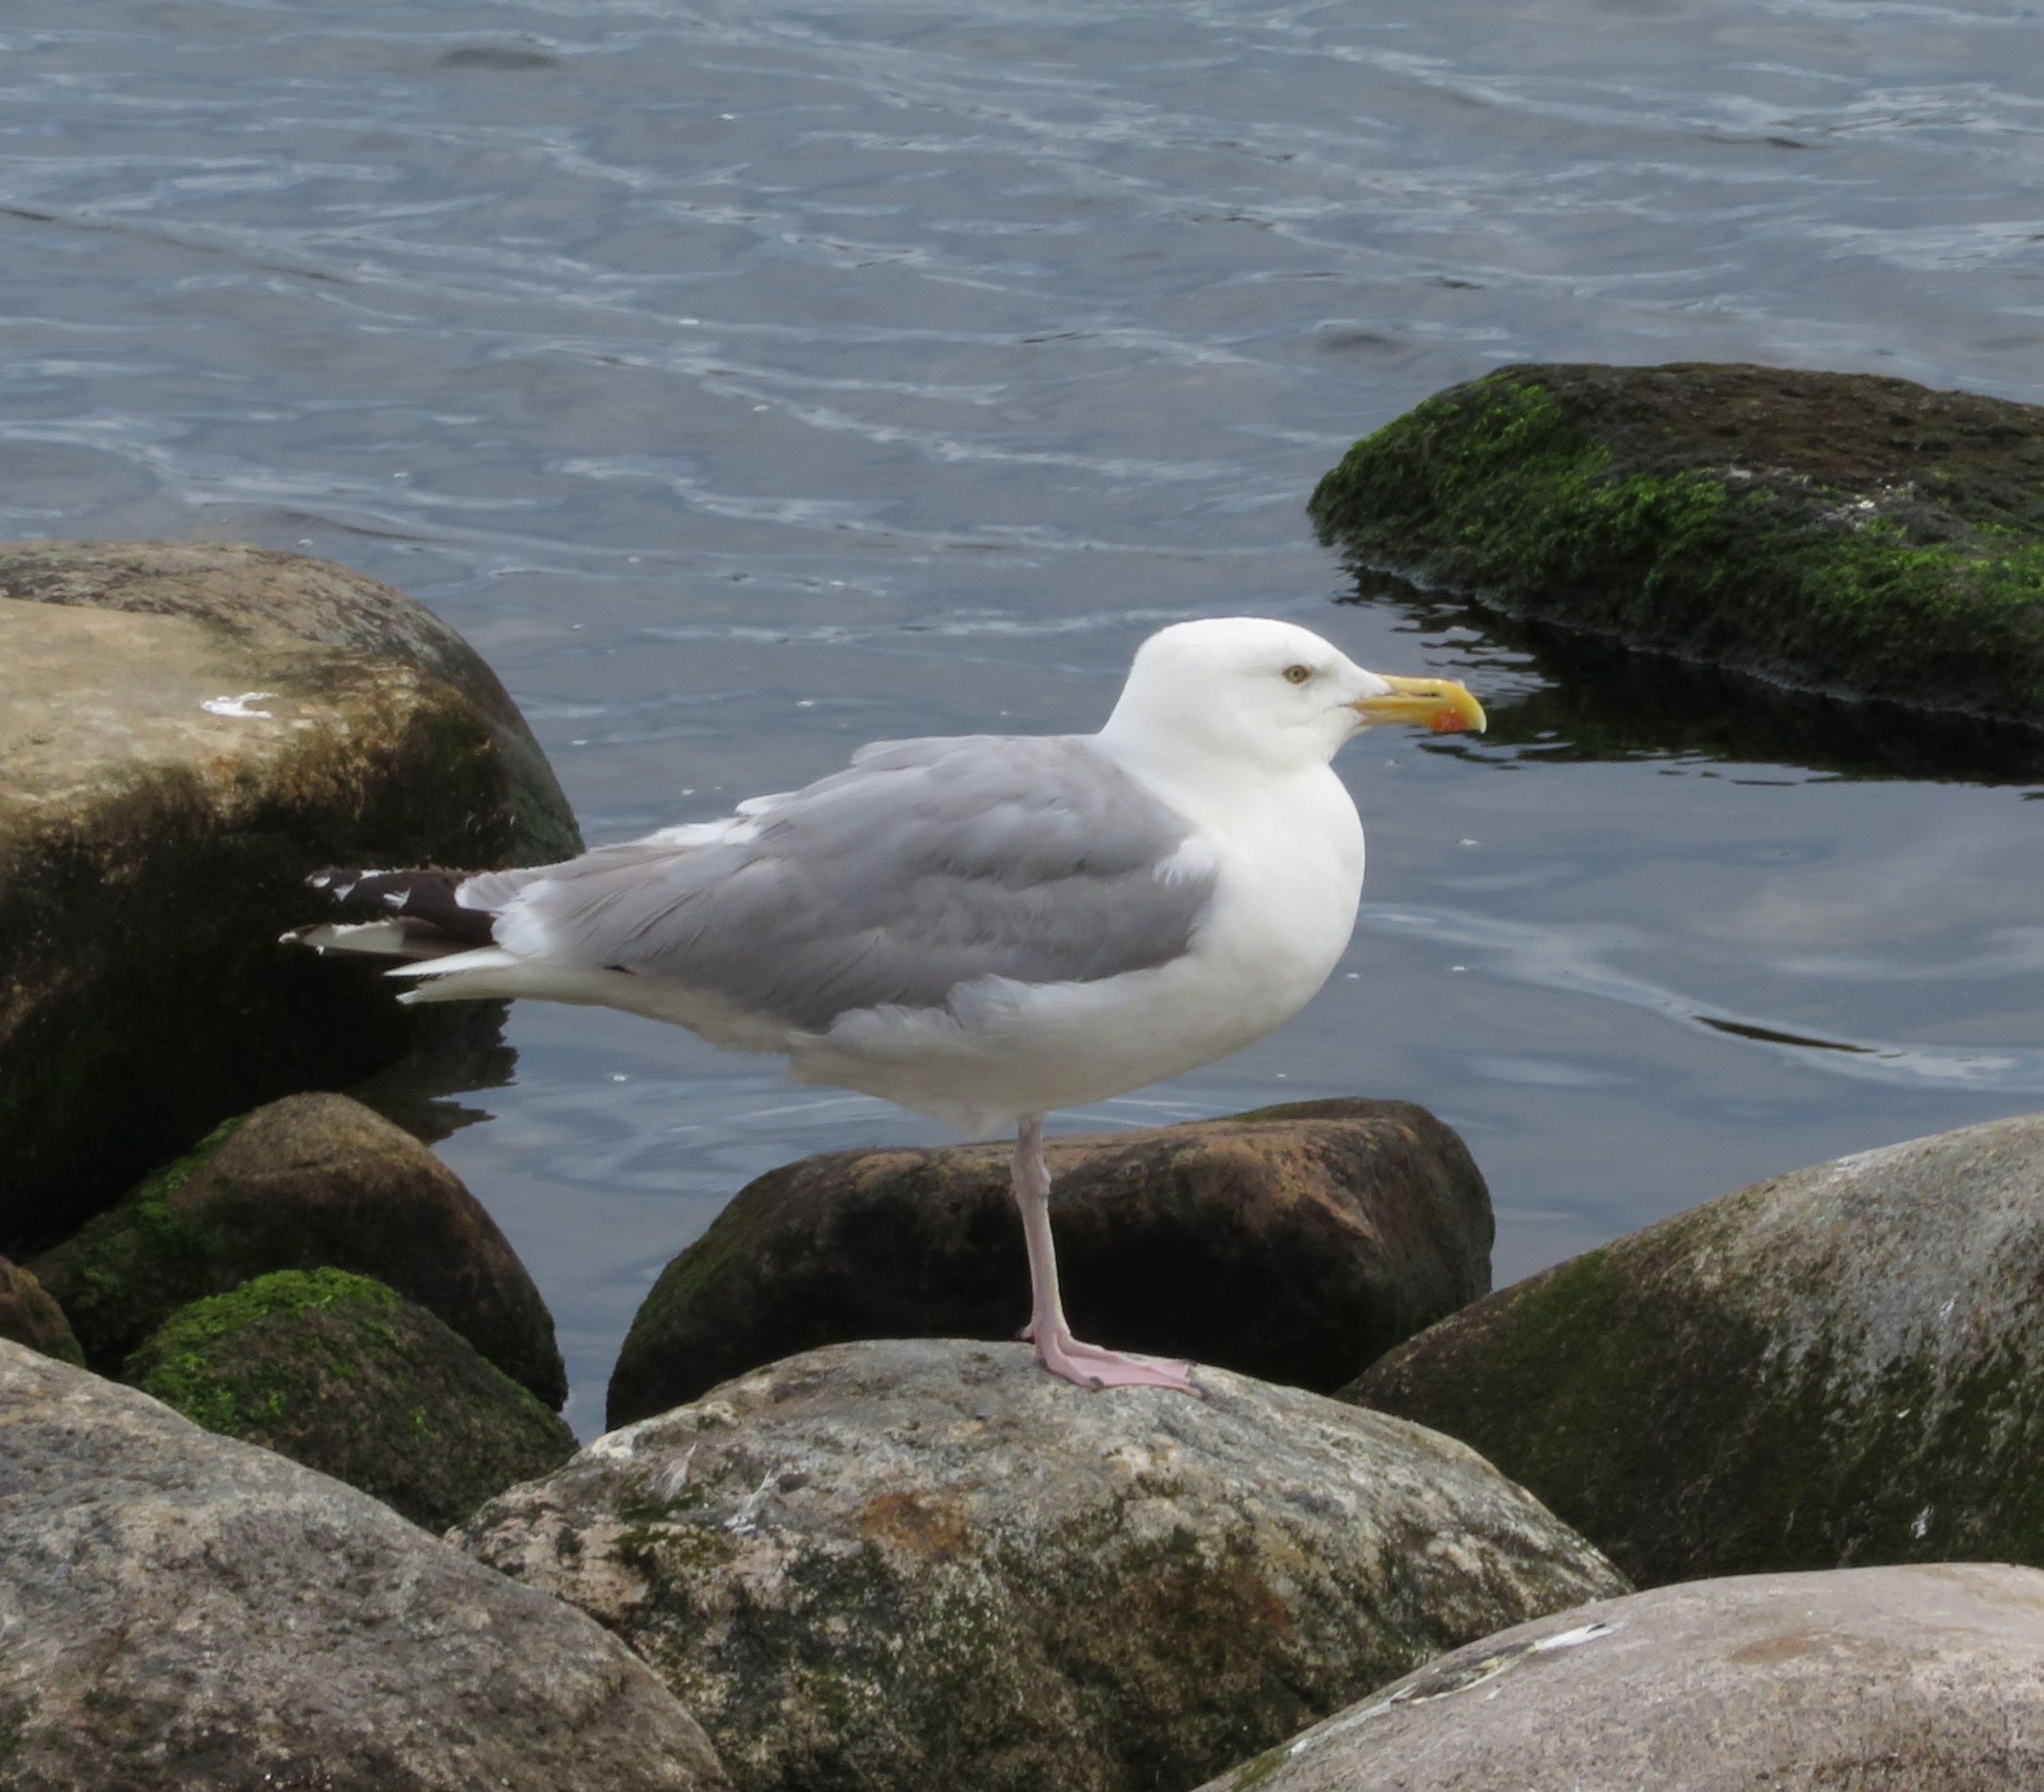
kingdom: Animalia
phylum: Chordata
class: Aves
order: Charadriiformes
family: Laridae
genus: Larus
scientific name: Larus argentatus
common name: Sølvmåge
